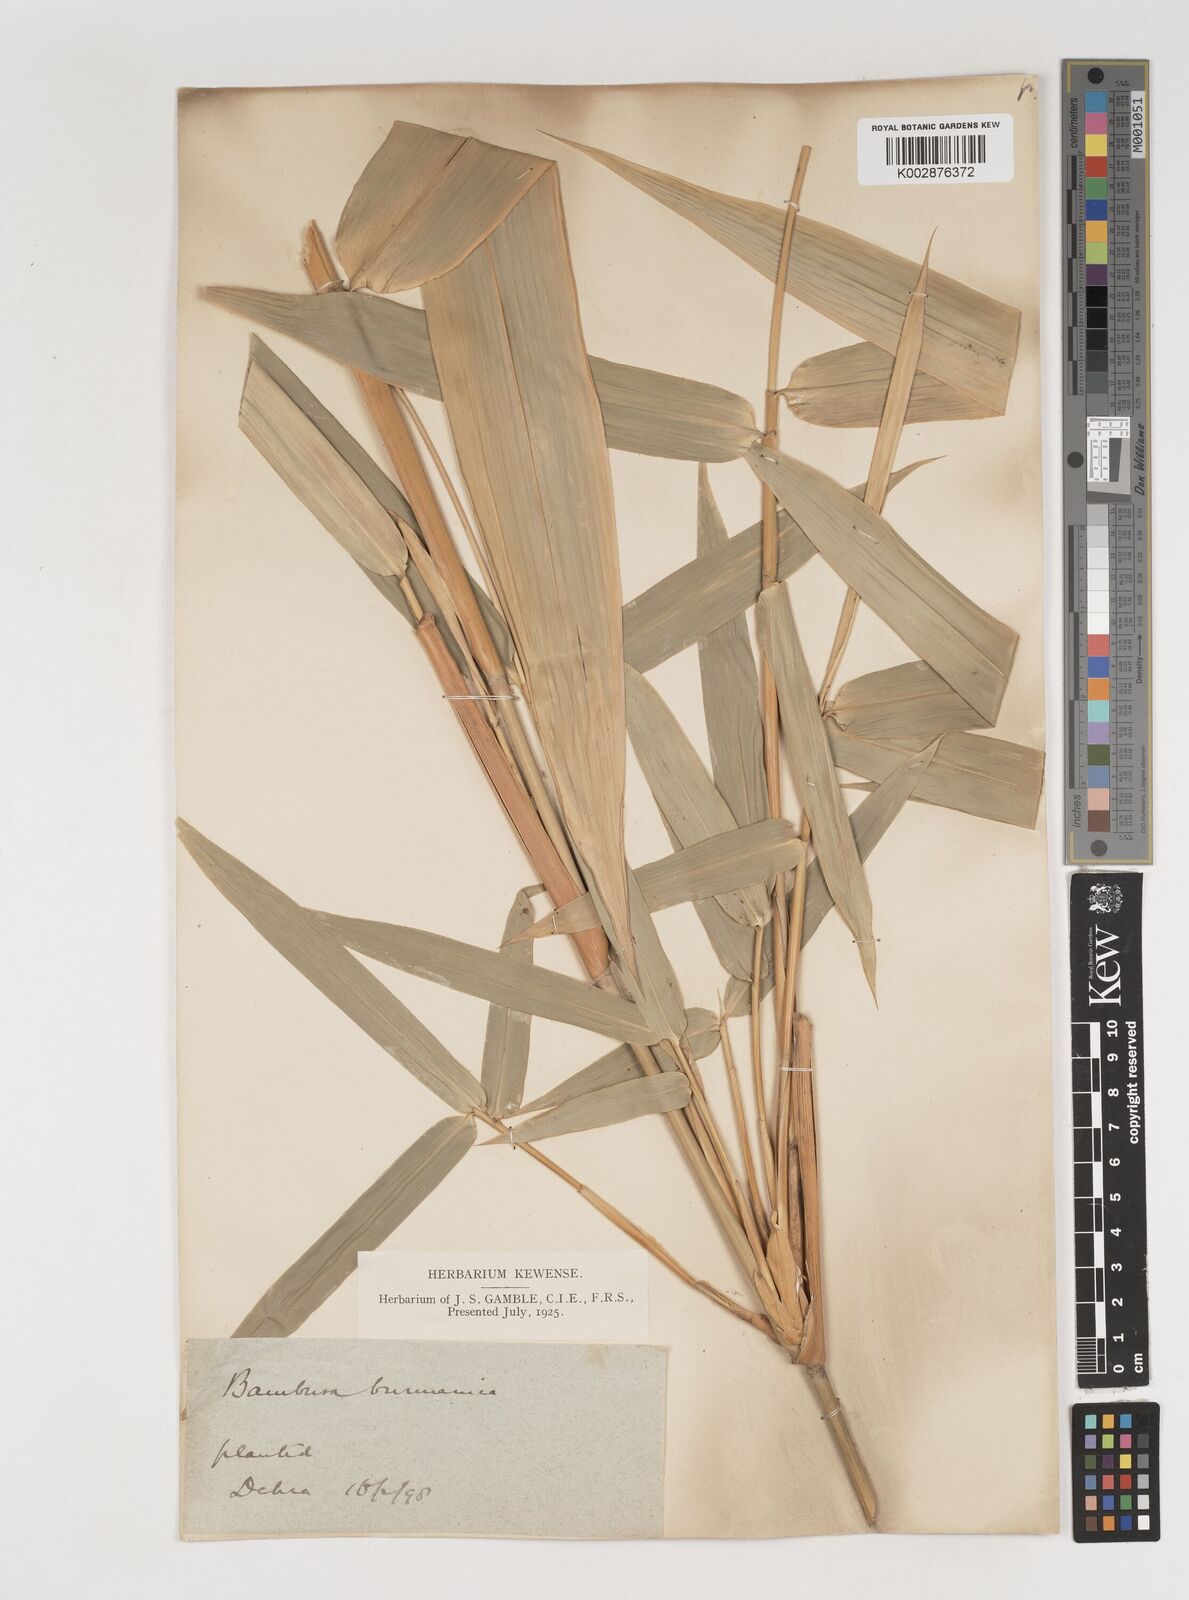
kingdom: Plantae
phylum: Tracheophyta
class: Liliopsida
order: Poales
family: Poaceae
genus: Bambusa
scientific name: Bambusa burmanica
